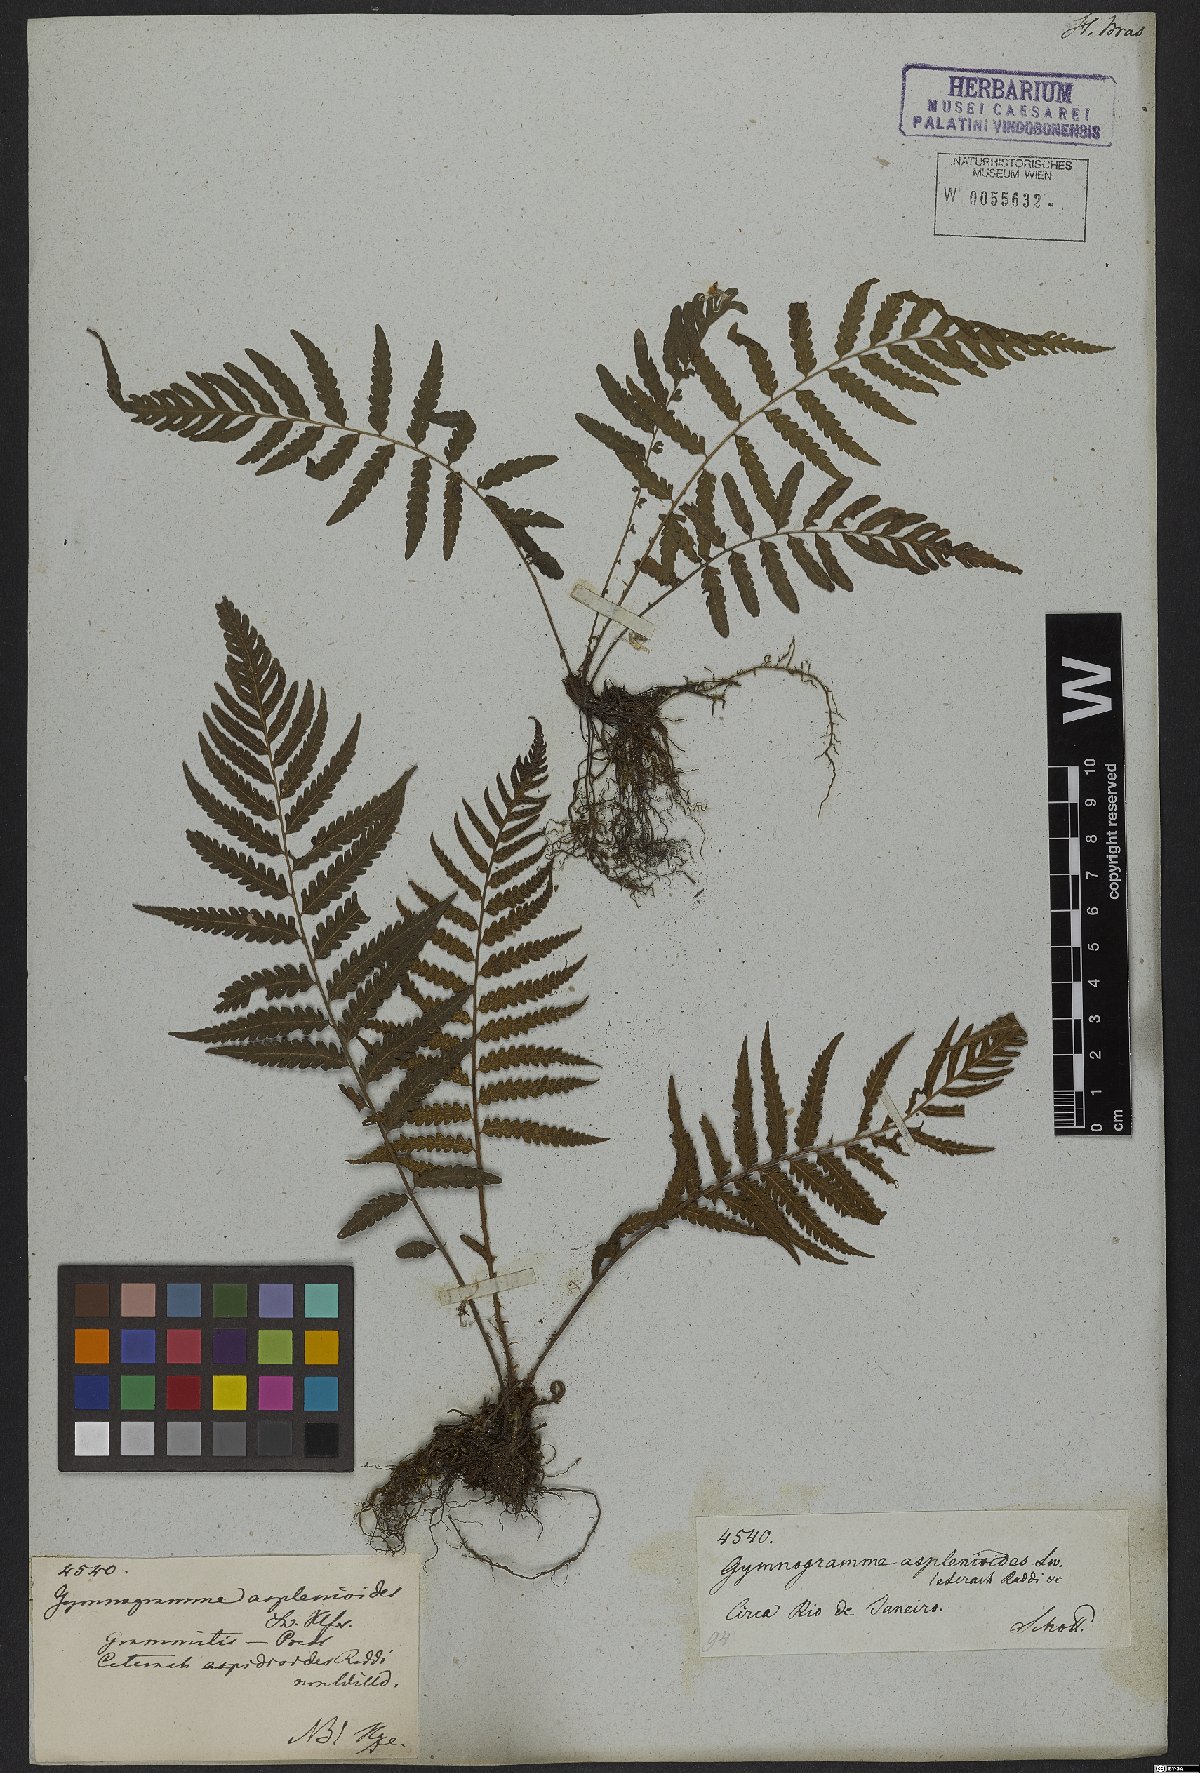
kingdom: Plantae
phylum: Tracheophyta
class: Polypodiopsida
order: Polypodiales
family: Thelypteridaceae
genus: Amauropelta
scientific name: Amauropelta aspidioides
